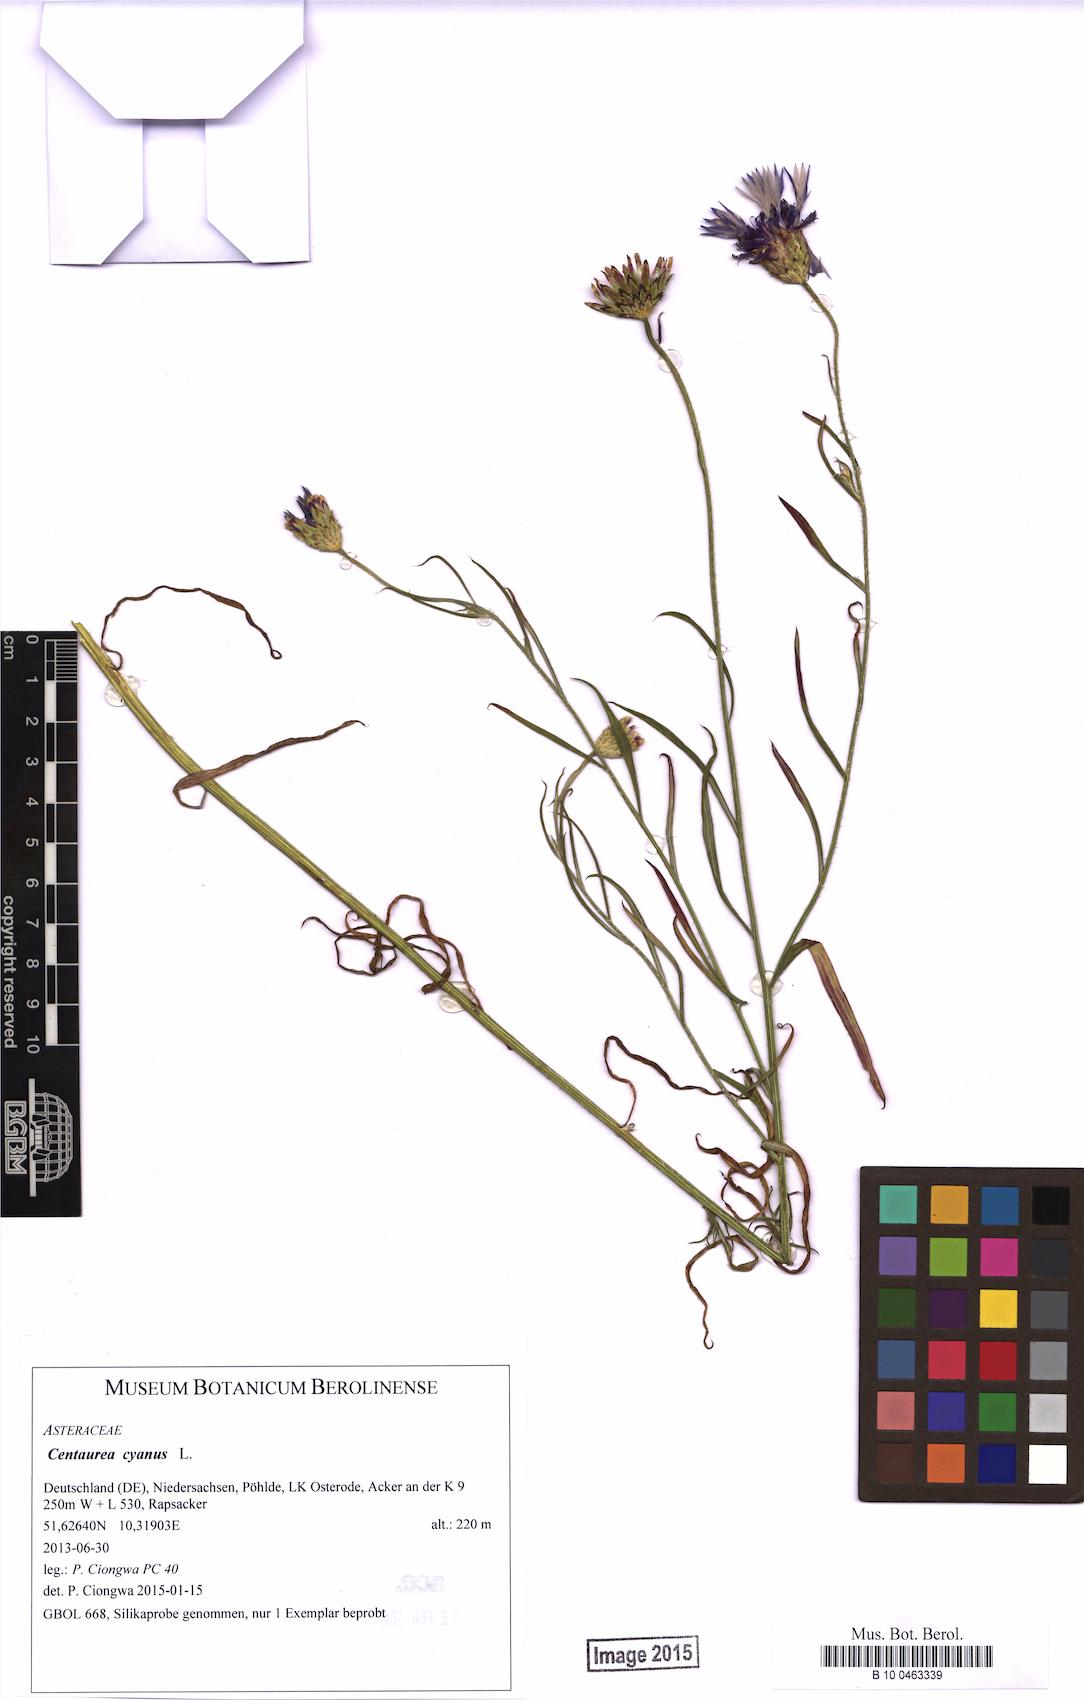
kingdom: Plantae
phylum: Tracheophyta
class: Magnoliopsida
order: Asterales
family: Asteraceae
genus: Centaurea
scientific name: Centaurea cyanus
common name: Cornflower
